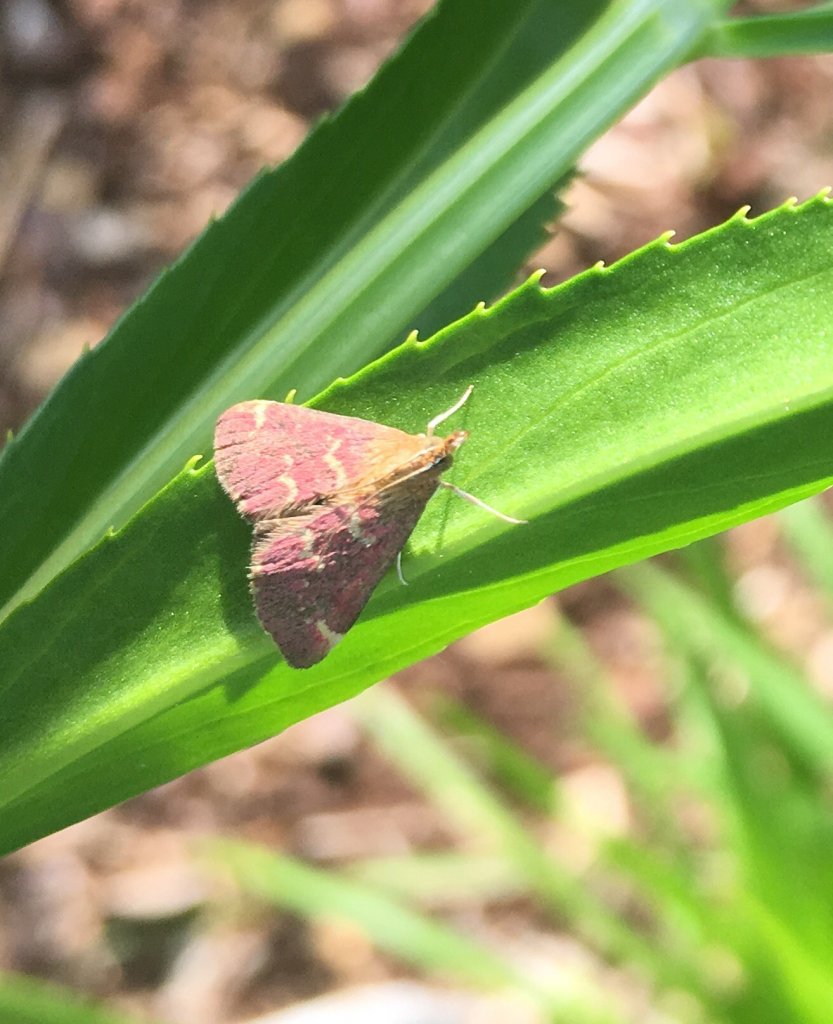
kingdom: Animalia
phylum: Arthropoda
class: Insecta
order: Lepidoptera
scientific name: Lepidoptera
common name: Butterflies
